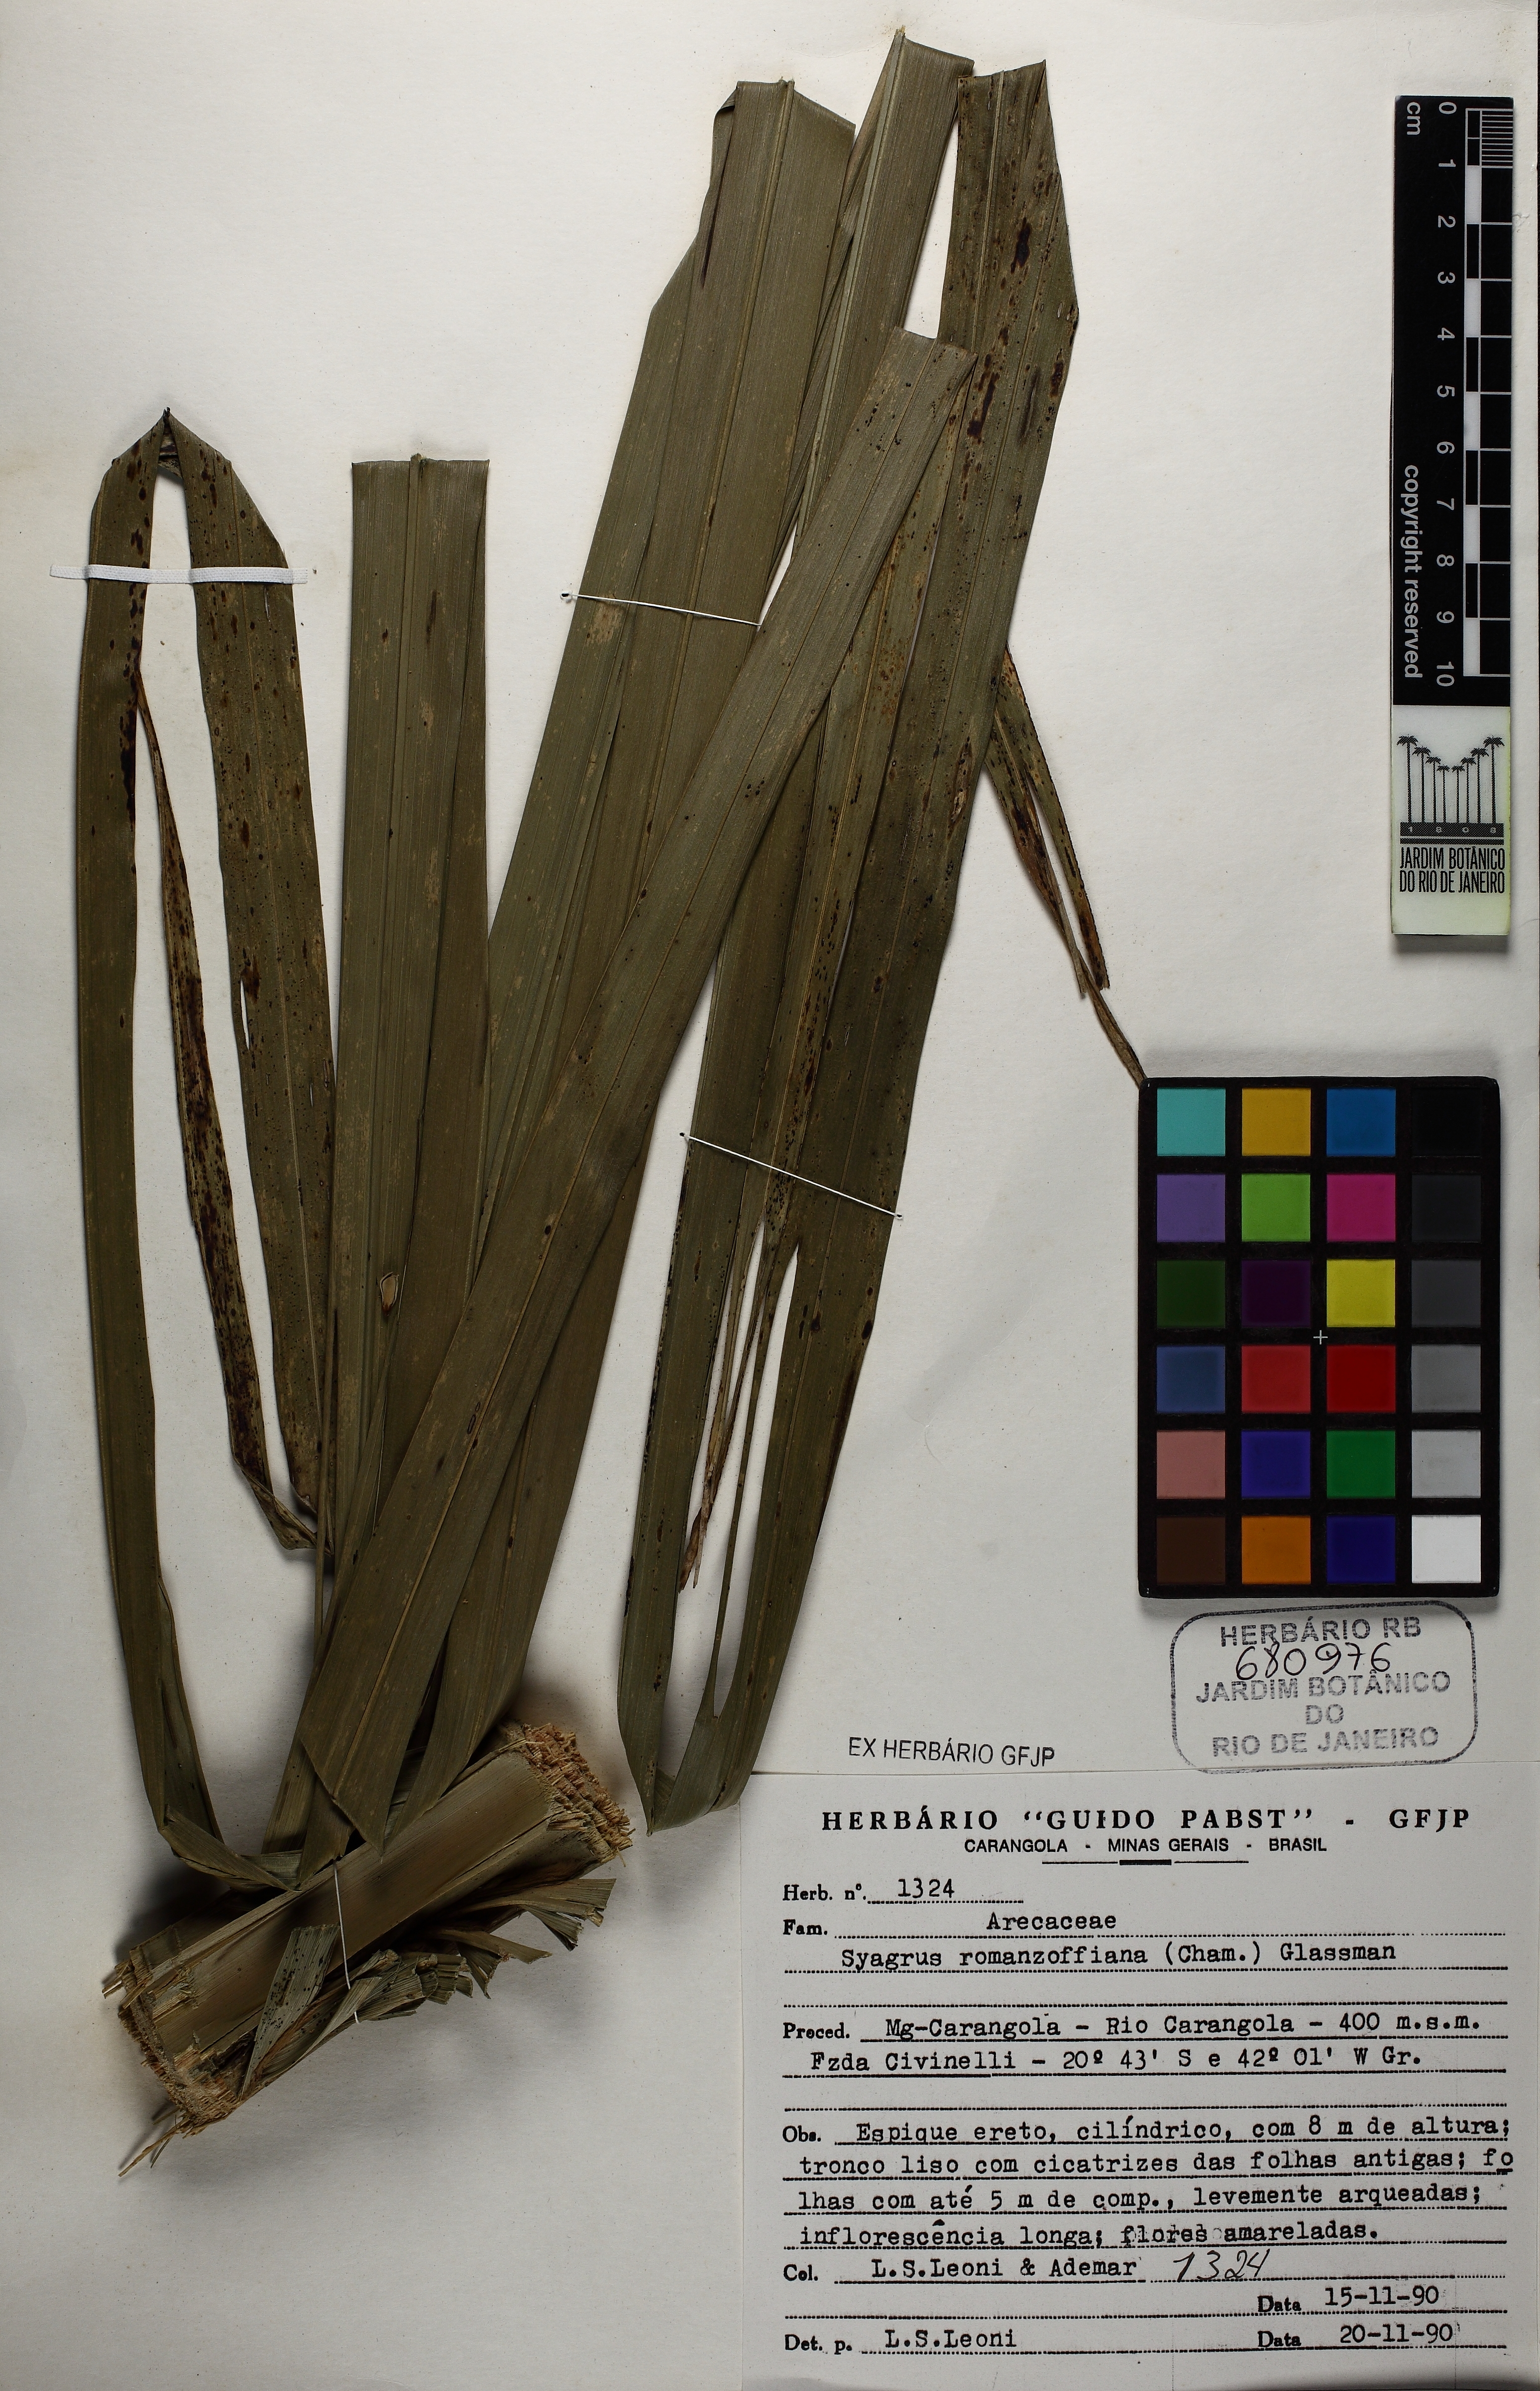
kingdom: Plantae
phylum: Tracheophyta
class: Liliopsida
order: Arecales
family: Arecaceae
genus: Syagrus
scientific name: Syagrus romanzoffiana
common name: Queen palm
